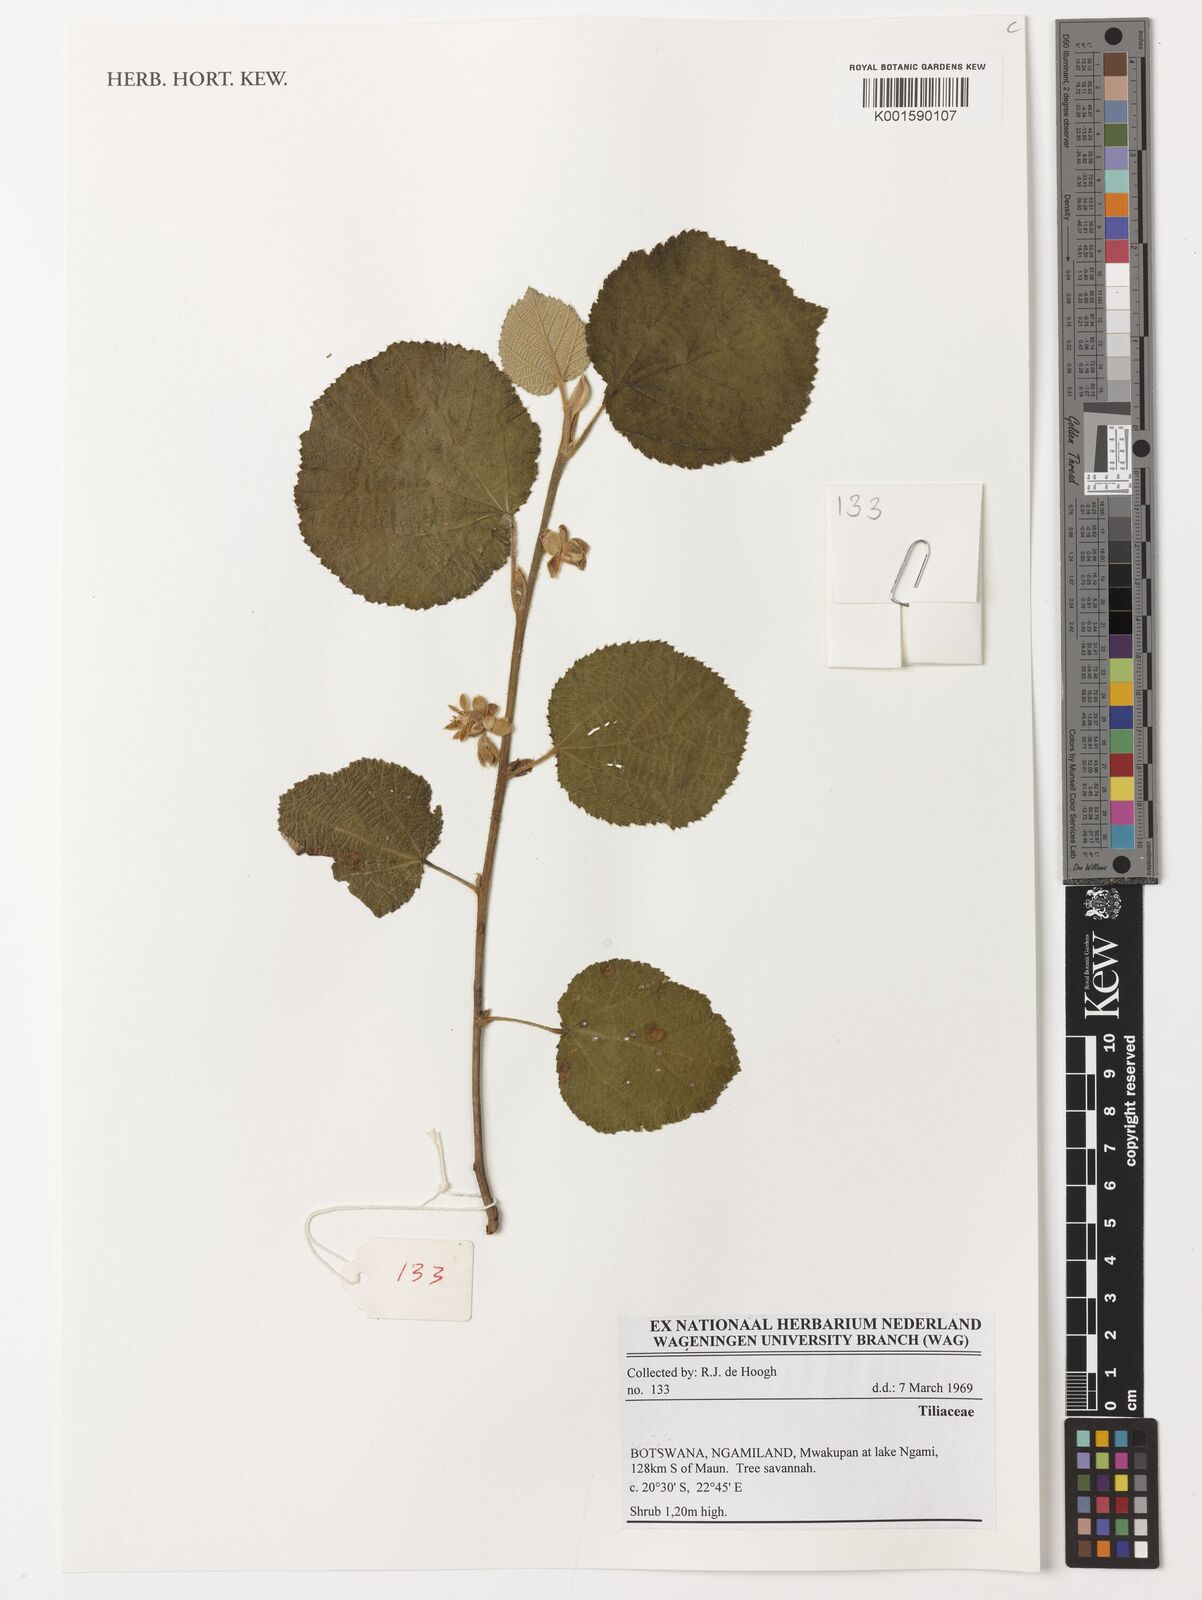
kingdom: Plantae
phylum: Tracheophyta
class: Magnoliopsida
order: Malvales
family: Tiliaceae
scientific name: Tiliaceae
